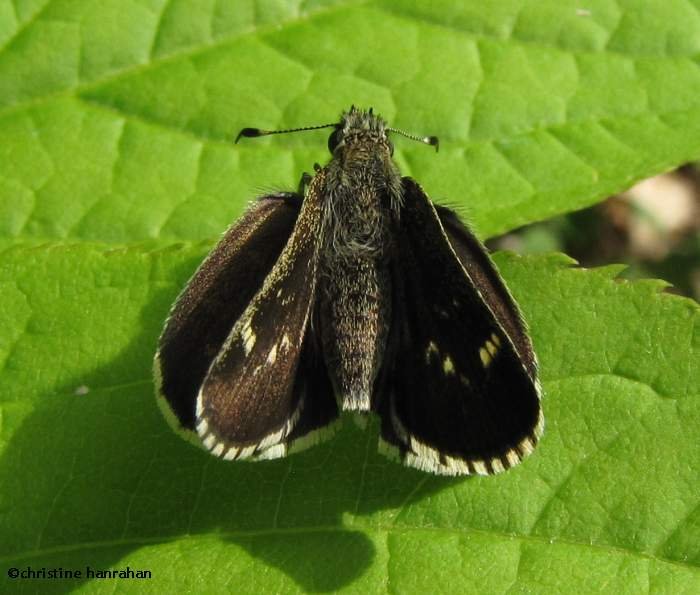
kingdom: Animalia
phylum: Arthropoda
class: Insecta
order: Lepidoptera
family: Hesperiidae
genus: Mastor
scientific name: Mastor hegon
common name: Pepper and Salt Skipper
